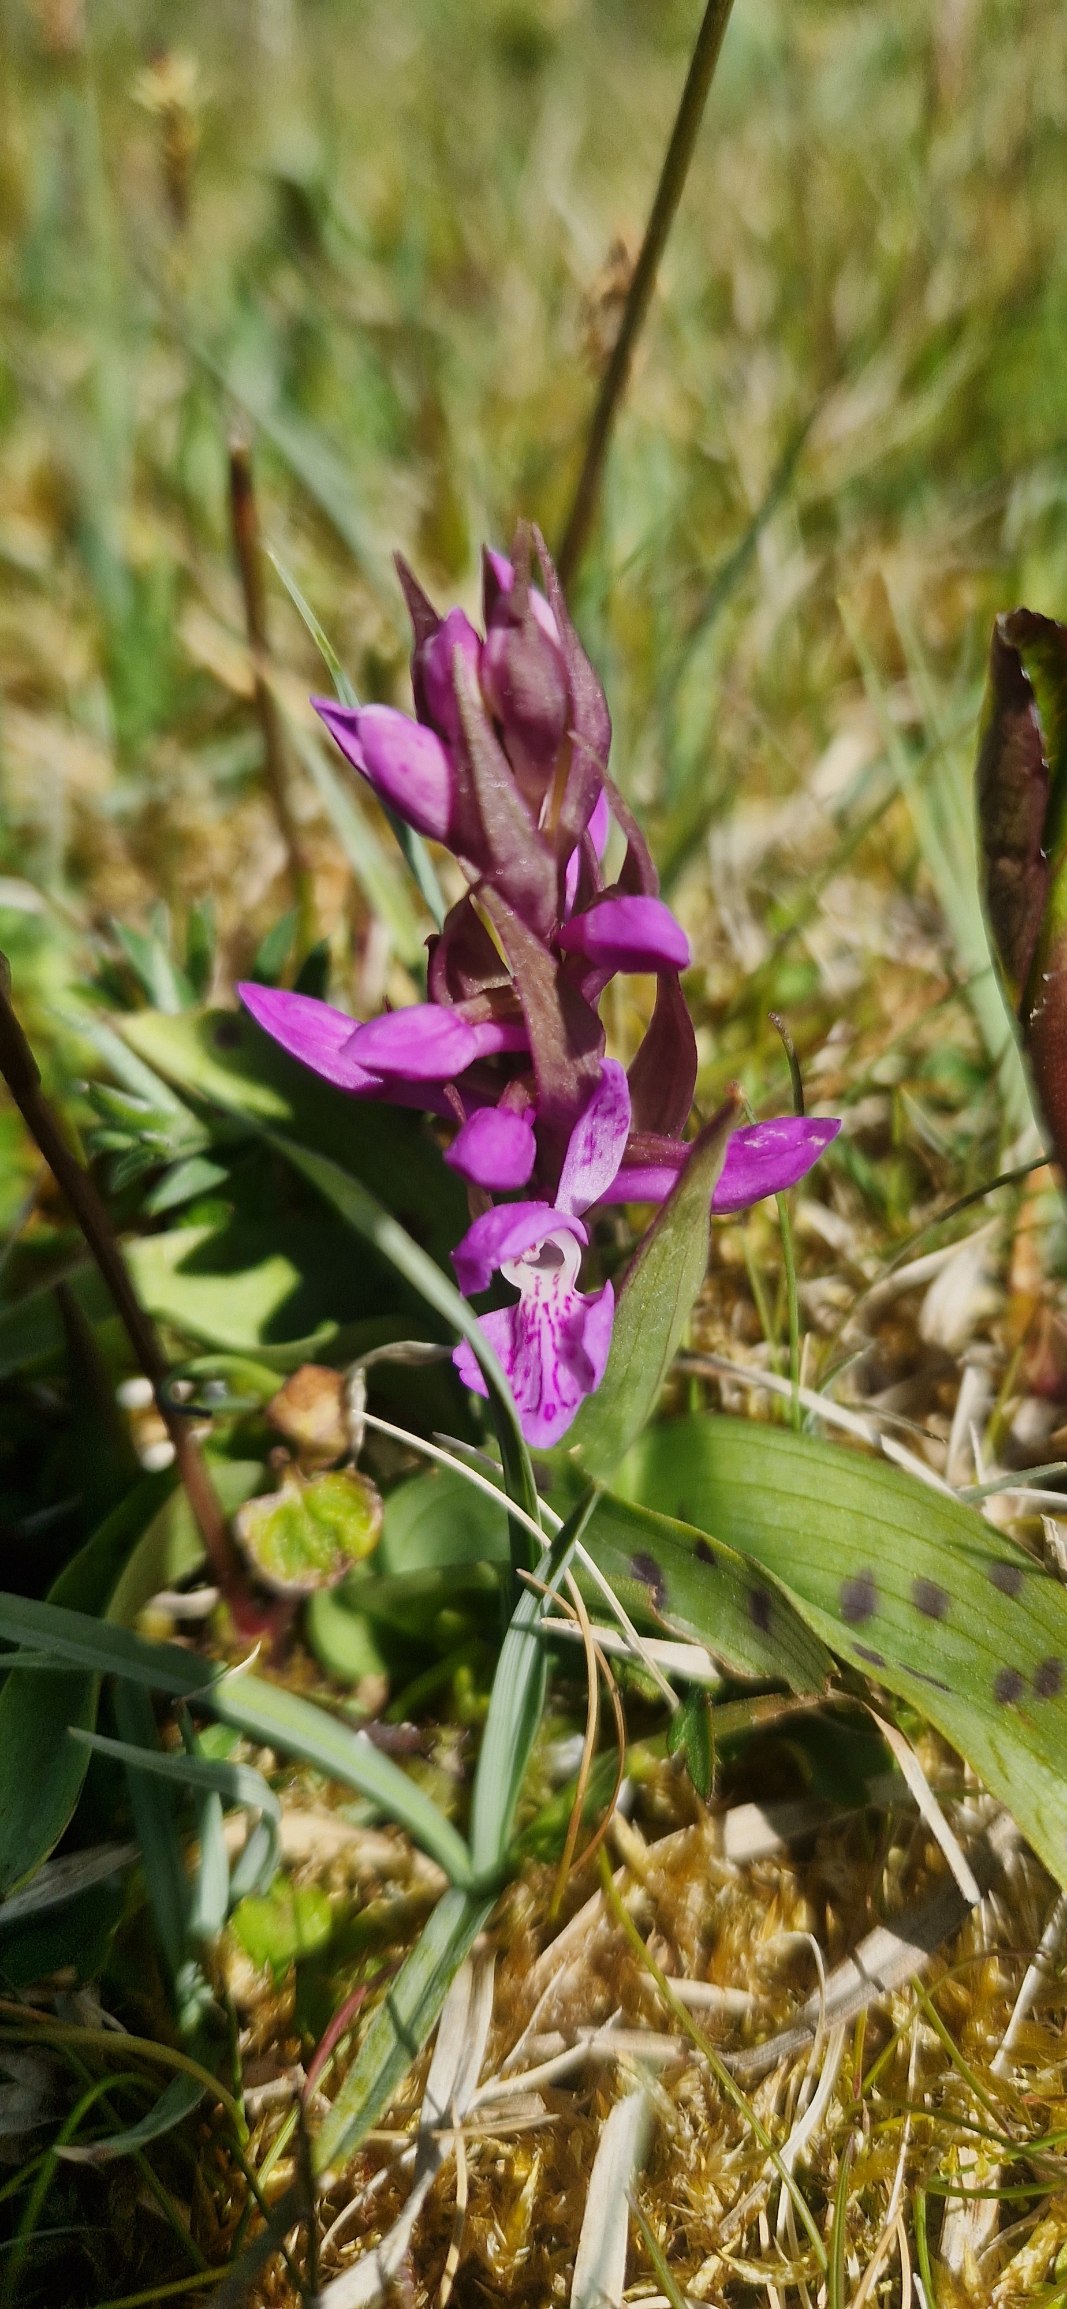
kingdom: Plantae
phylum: Tracheophyta
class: Liliopsida
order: Asparagales
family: Orchidaceae
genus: Dactylorhiza
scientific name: Dactylorhiza majalis
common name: Maj-gøgeurt
